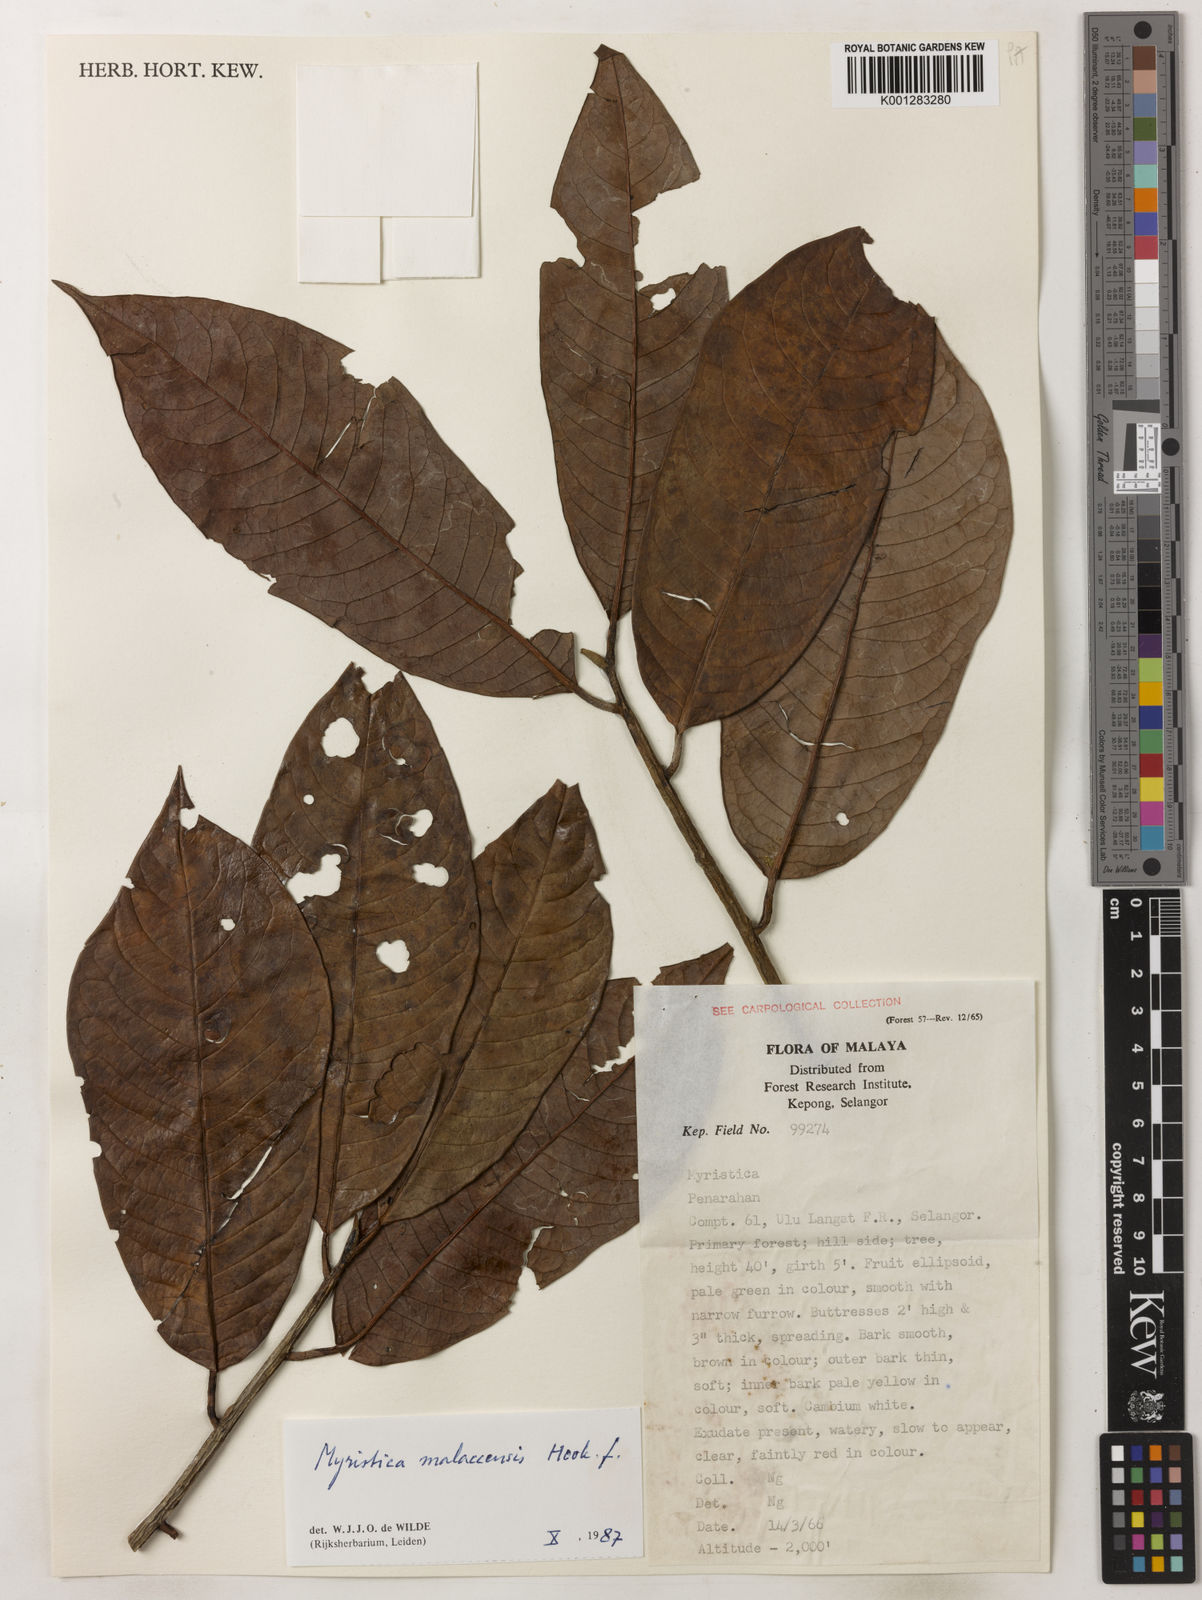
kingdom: Plantae
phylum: Tracheophyta
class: Magnoliopsida
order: Magnoliales
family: Myristicaceae
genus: Myristica
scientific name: Myristica malaccensis
